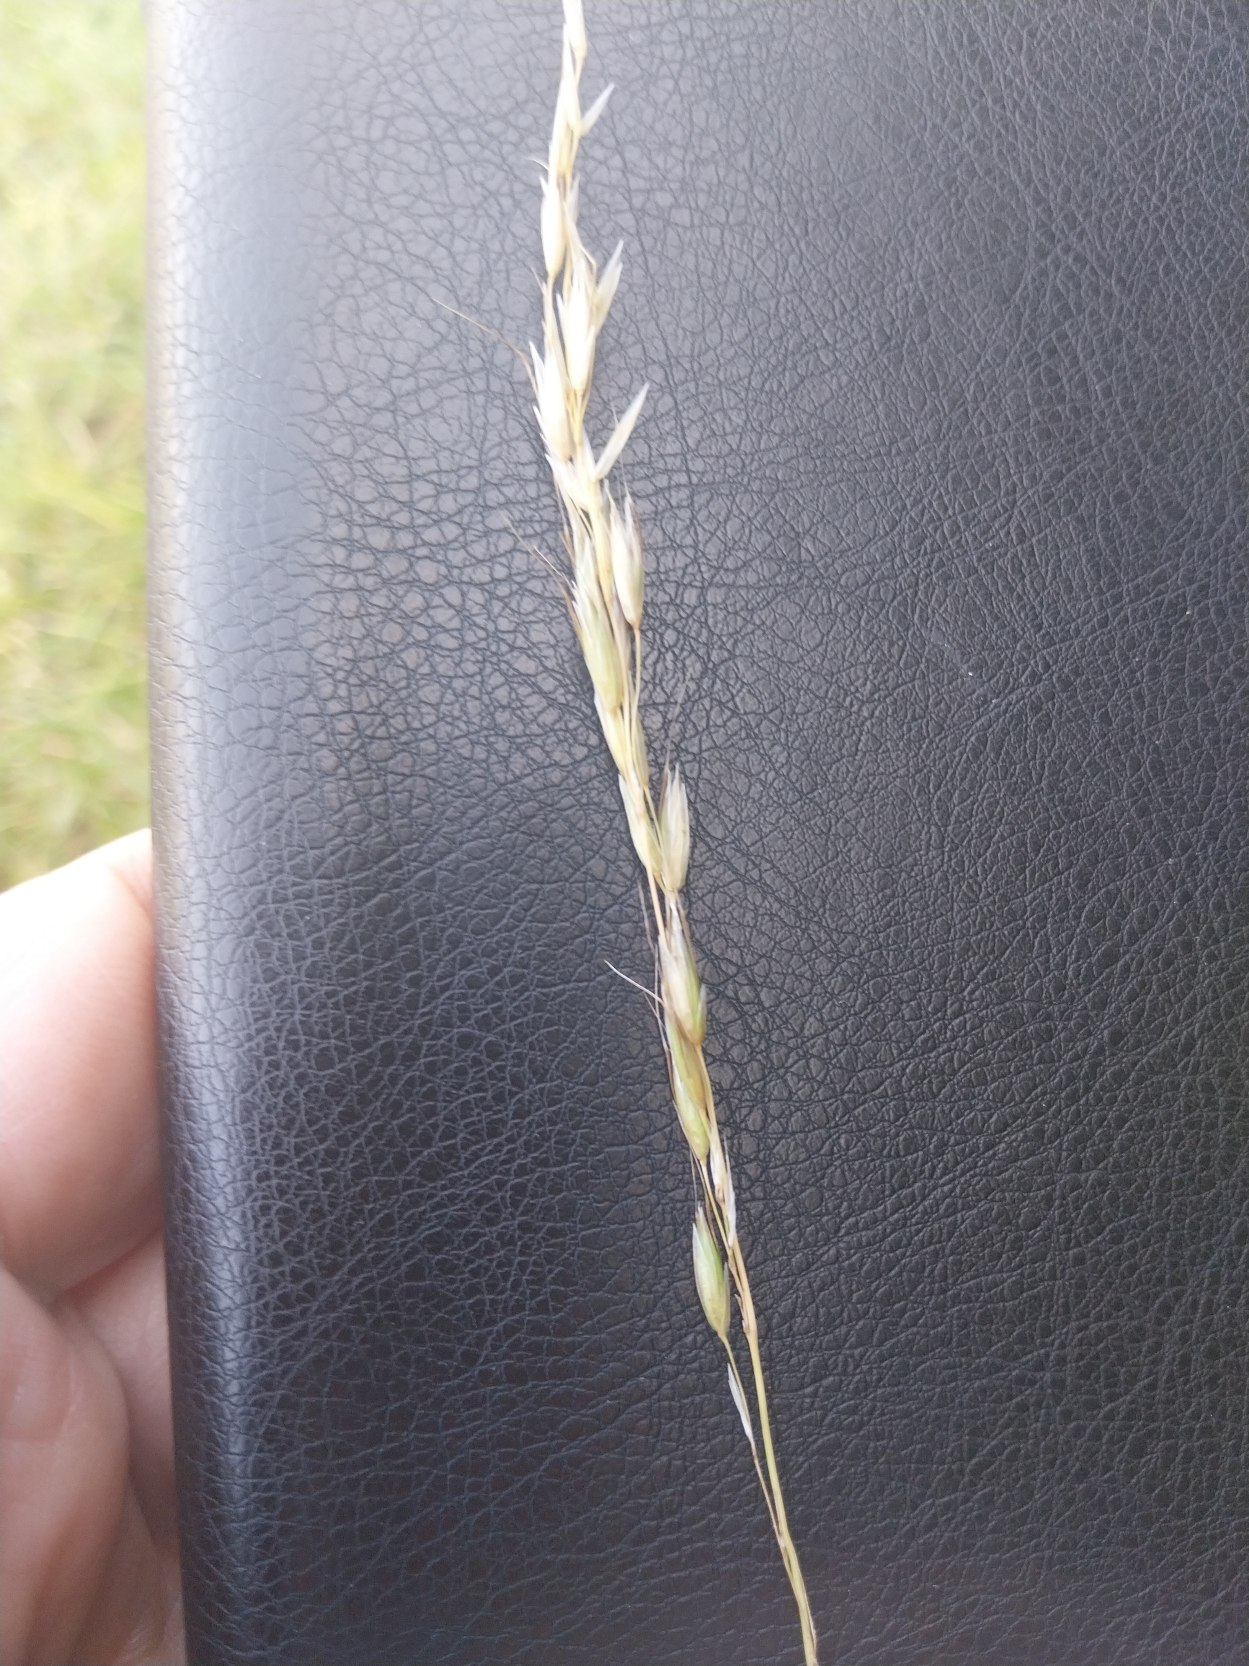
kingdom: Plantae
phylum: Tracheophyta
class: Liliopsida
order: Poales
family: Poaceae
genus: Arrhenatherum
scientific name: Arrhenatherum elatius
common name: Draphavre
